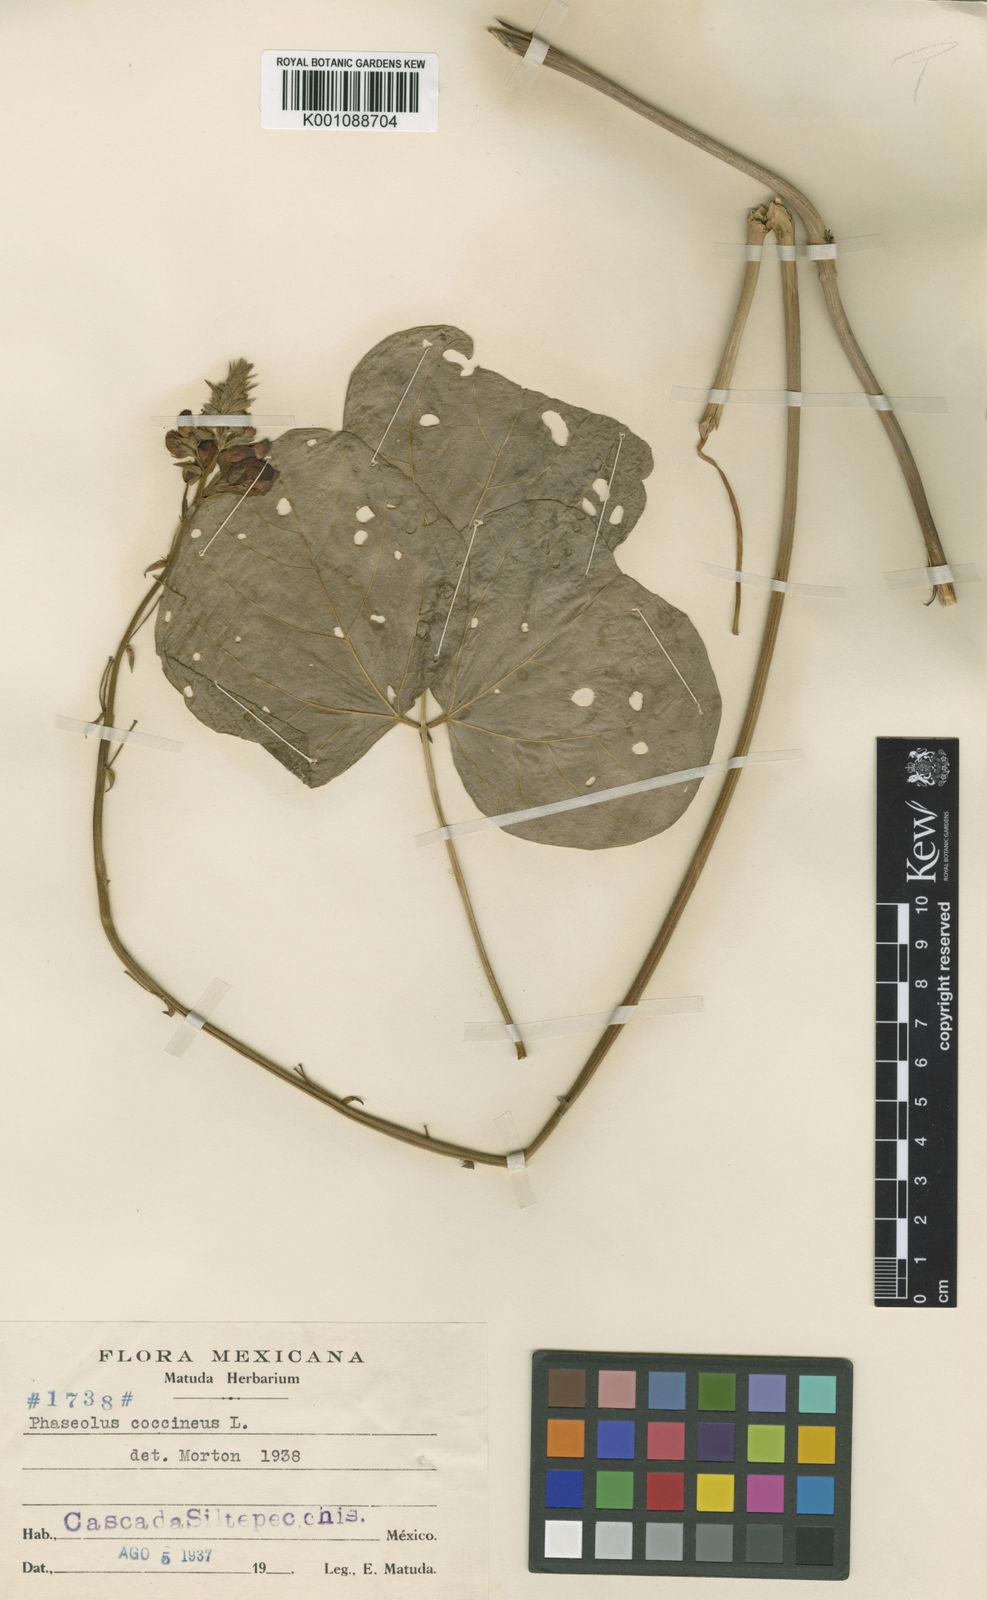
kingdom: Plantae
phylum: Tracheophyta
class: Magnoliopsida
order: Fabales
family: Fabaceae
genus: Phaseolus
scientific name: Phaseolus coccineus
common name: Runner bean
